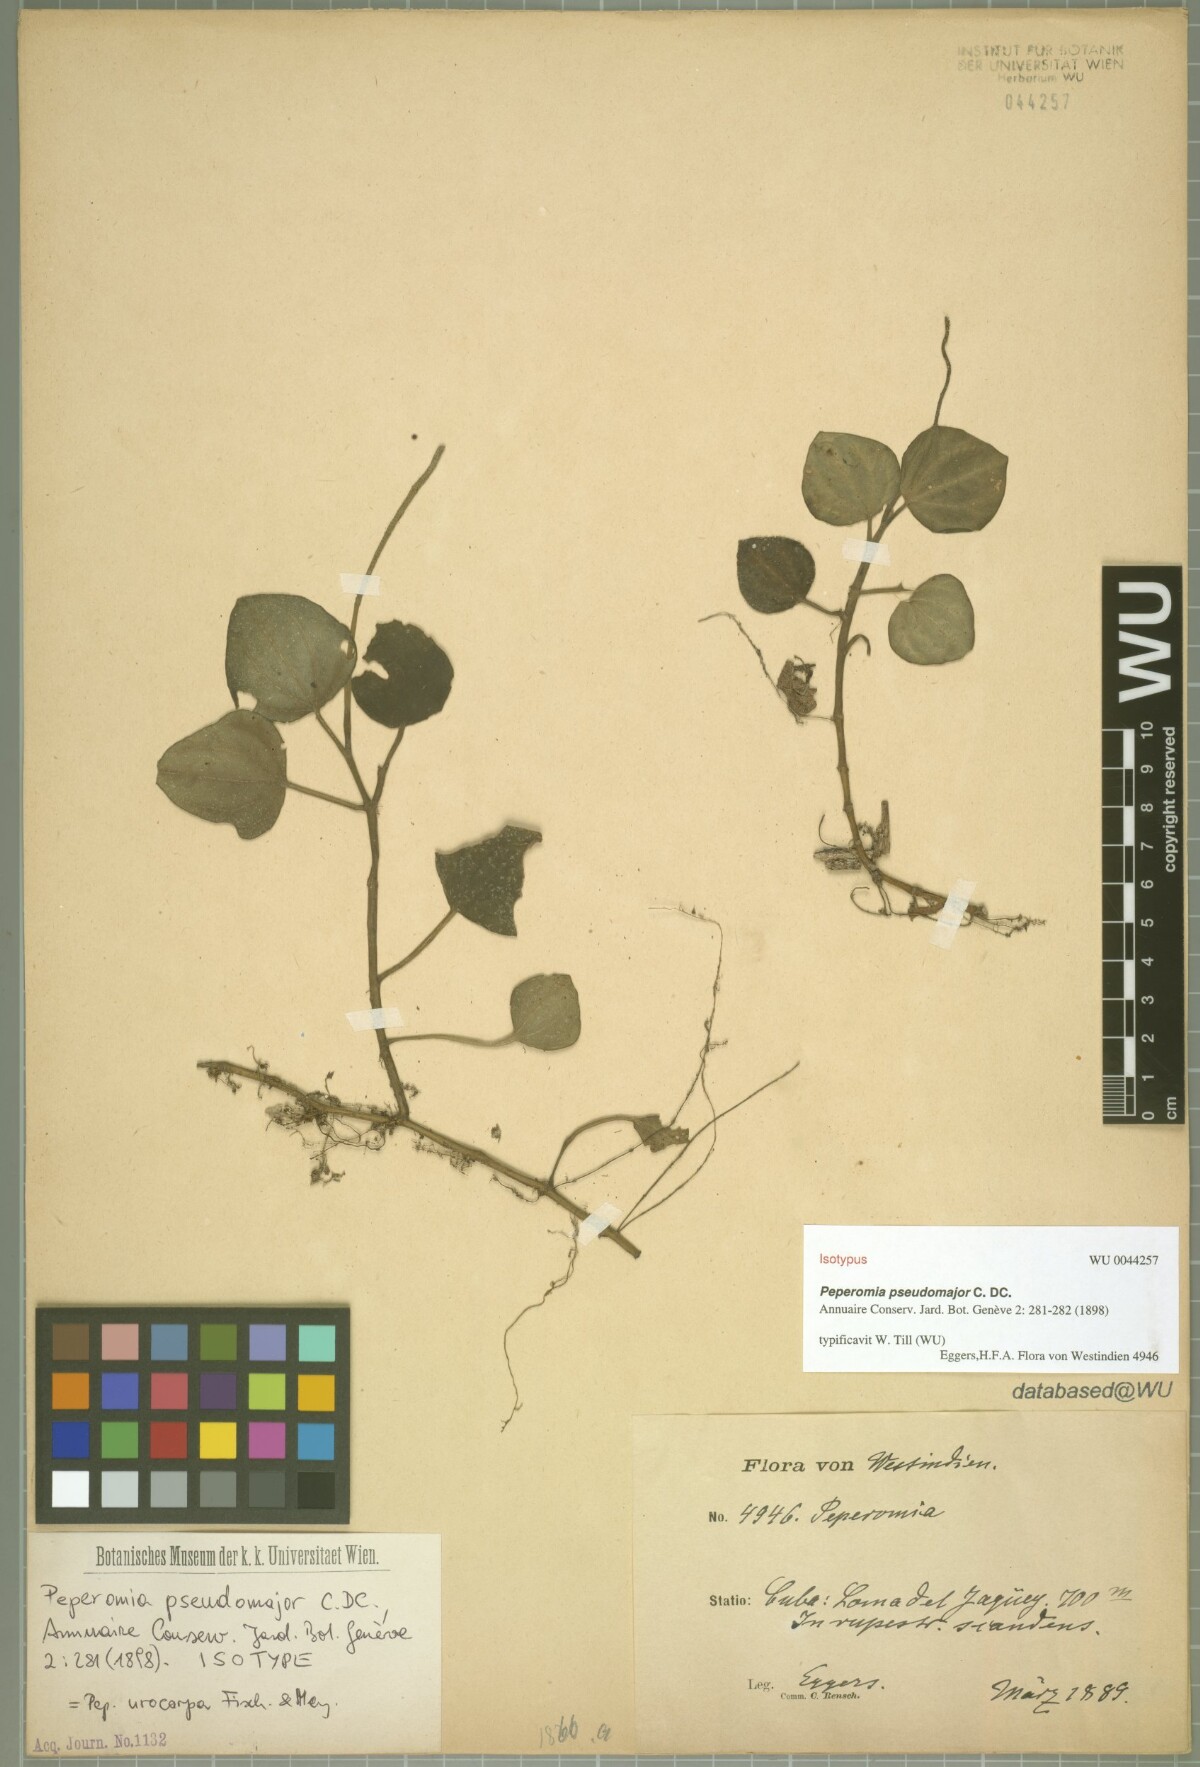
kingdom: Plantae
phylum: Tracheophyta
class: Magnoliopsida
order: Piperales
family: Piperaceae
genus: Peperomia
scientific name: Peperomia urocarpa
